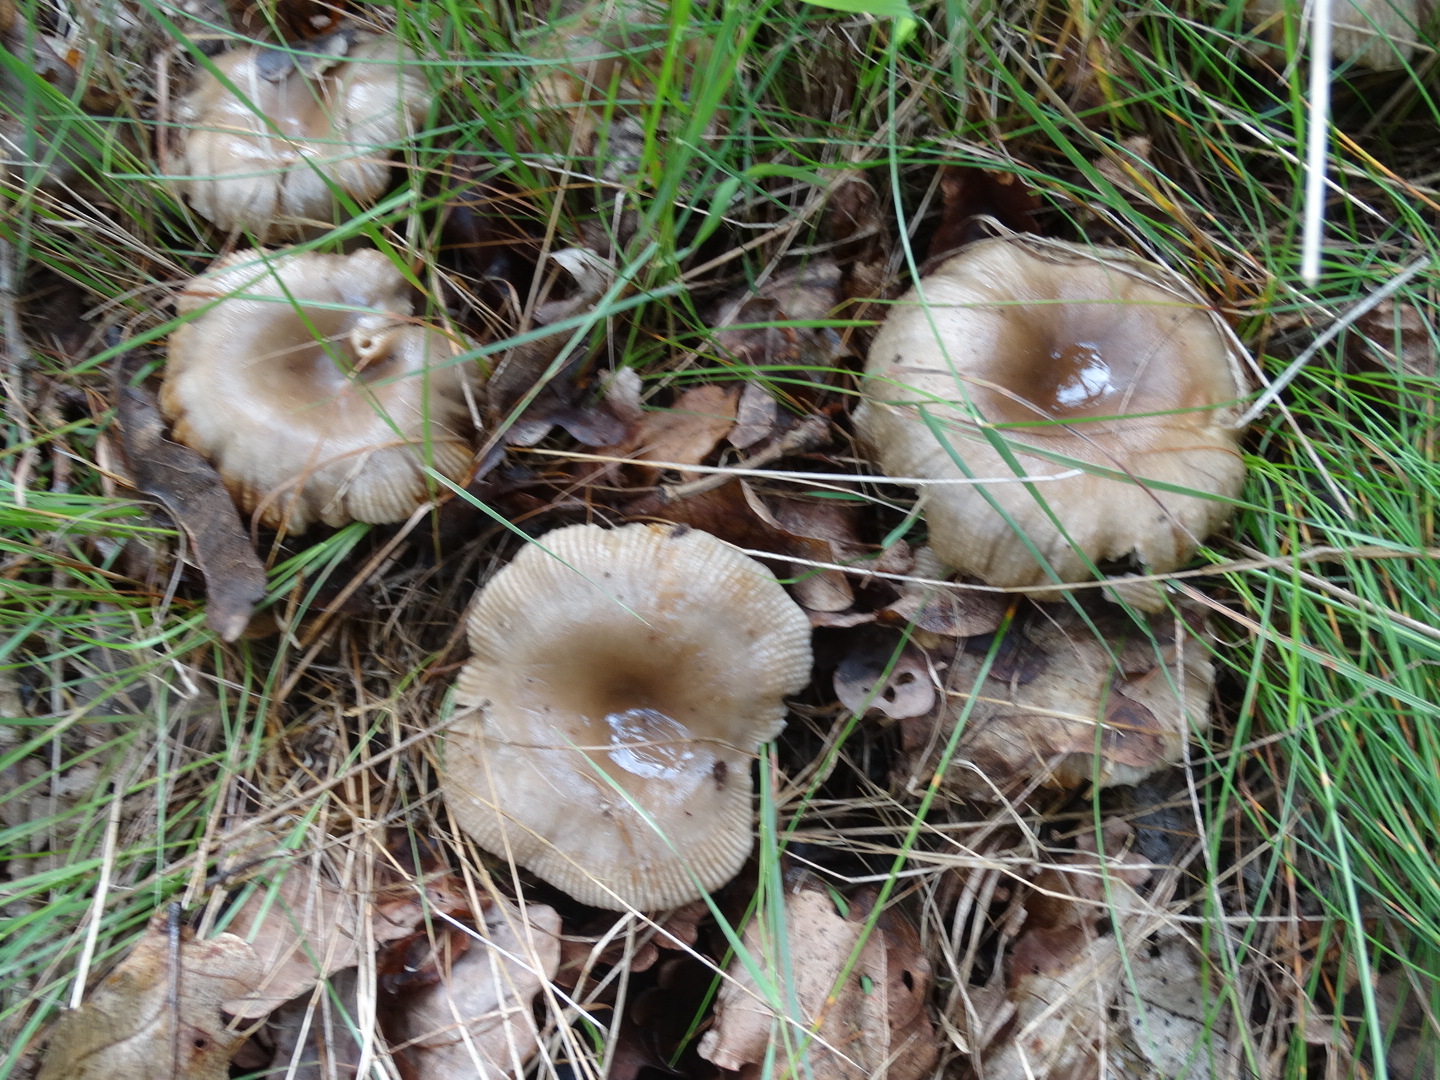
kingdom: Fungi
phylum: Basidiomycota
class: Agaricomycetes
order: Russulales
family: Russulaceae
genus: Russula
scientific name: Russula
